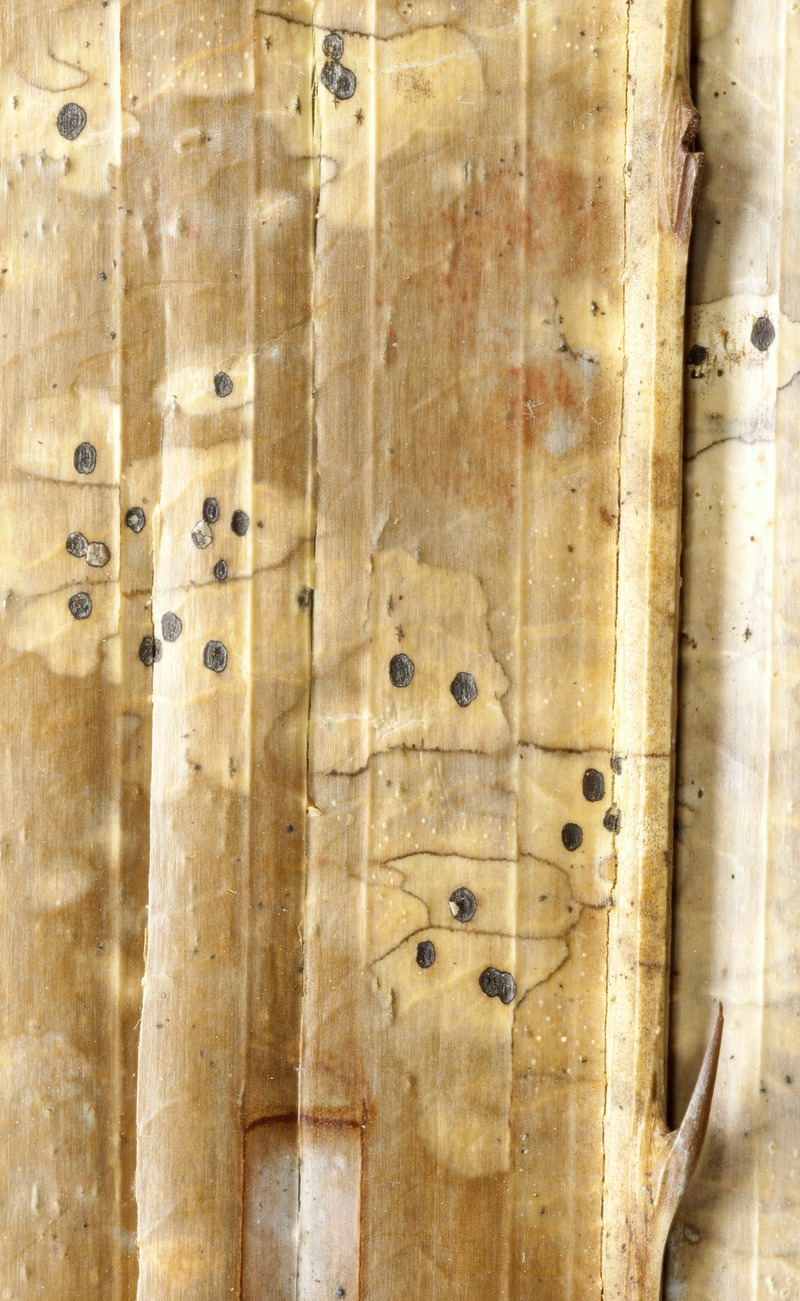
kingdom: Fungi
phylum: Ascomycota
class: Leotiomycetes
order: Rhytismatales
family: Rhytismataceae
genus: Coccomyces
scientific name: Coccomyces hypodermatis
